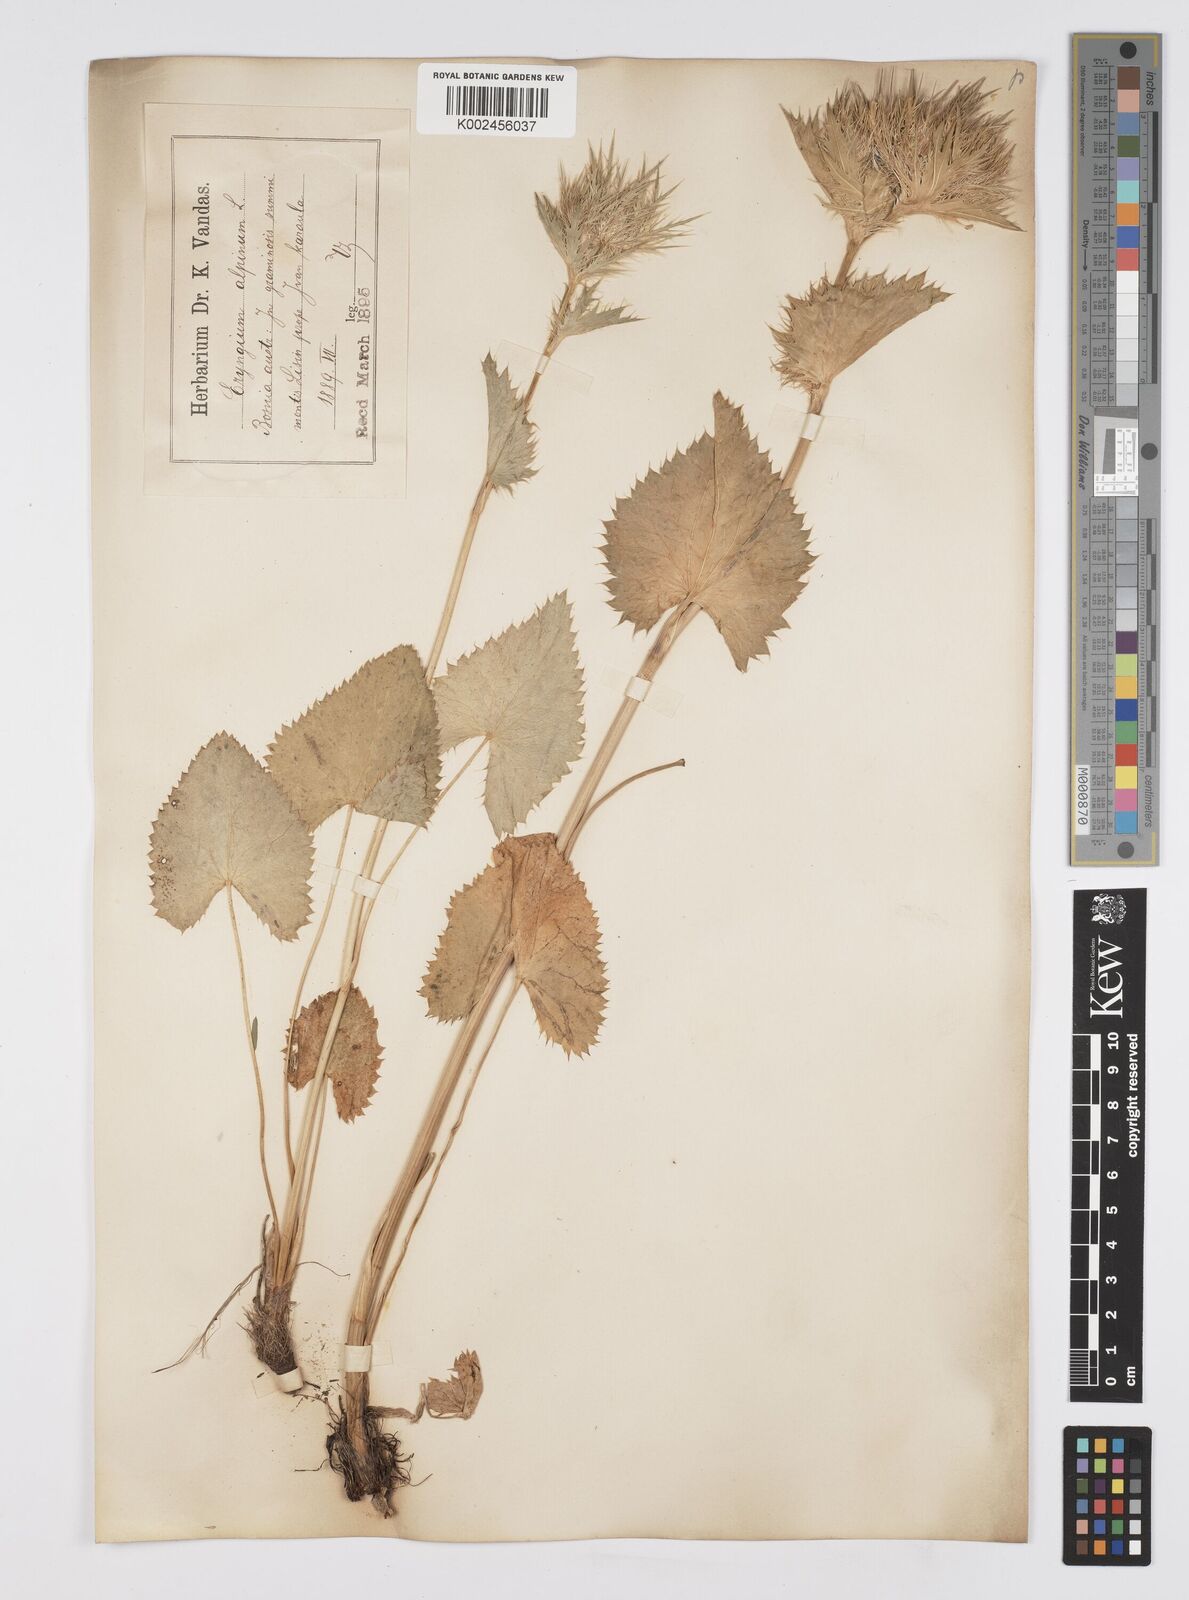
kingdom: Plantae
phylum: Tracheophyta
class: Magnoliopsida
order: Apiales
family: Apiaceae
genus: Eryngium
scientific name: Eryngium
